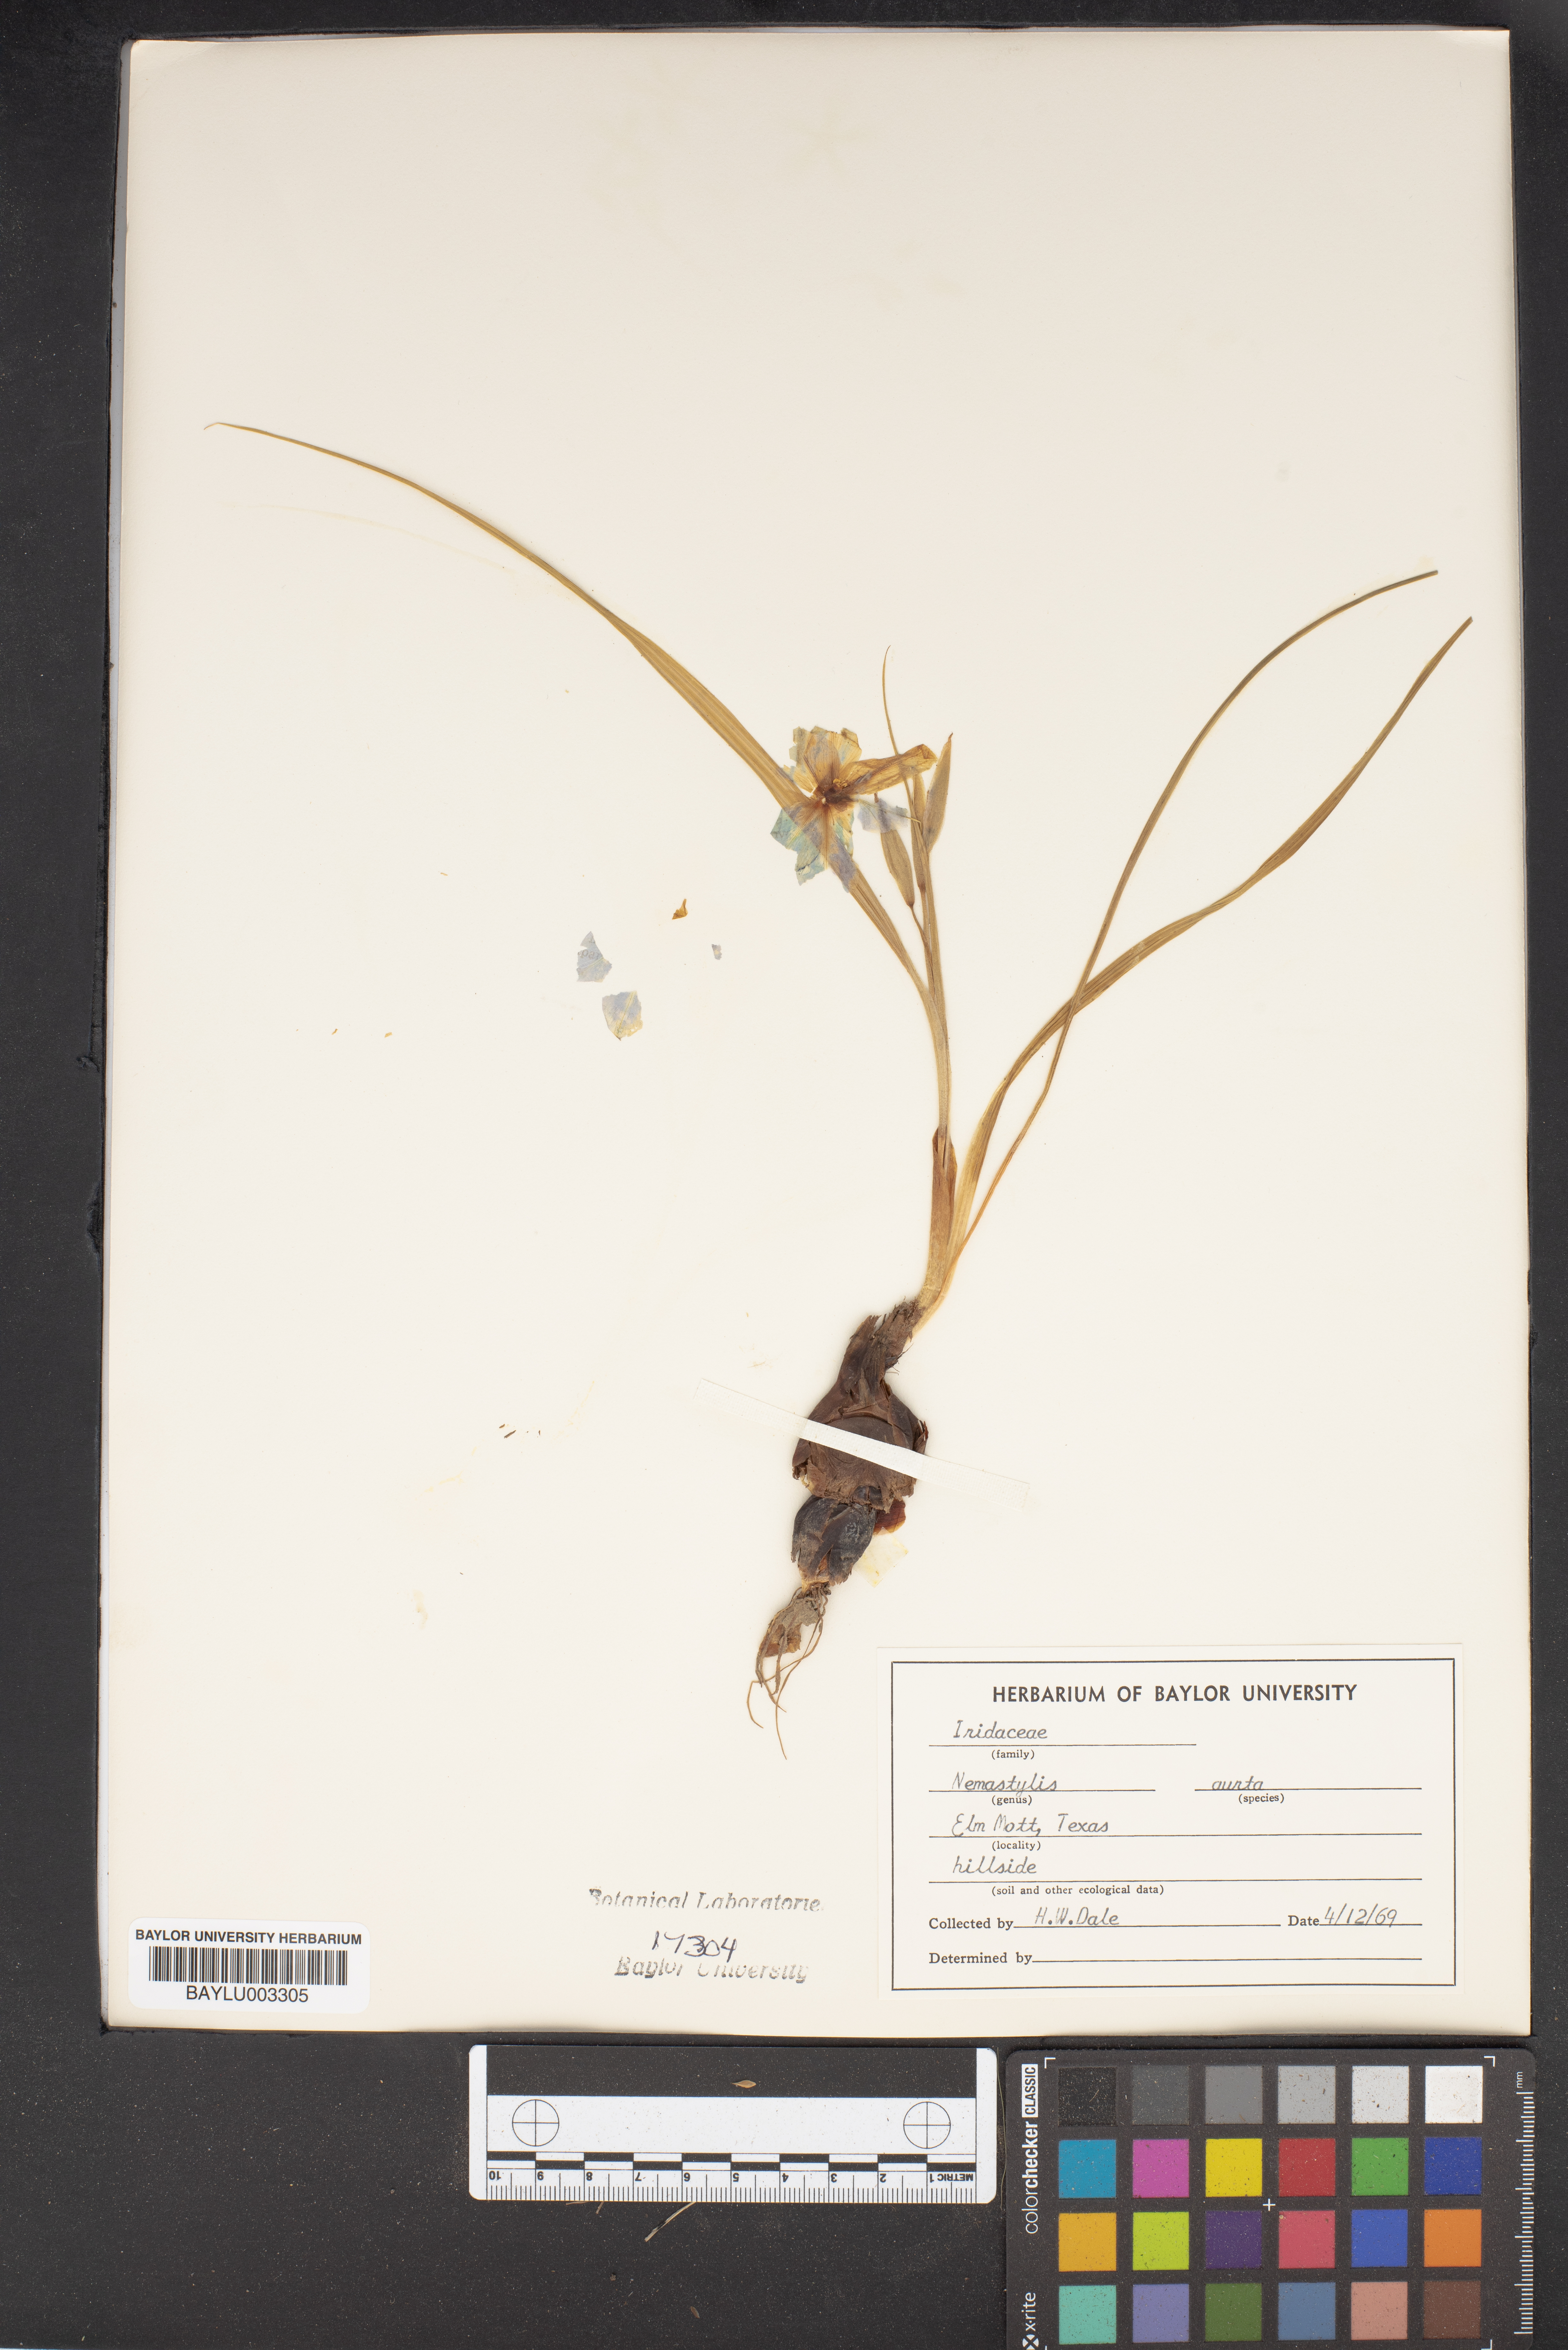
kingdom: Plantae
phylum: Tracheophyta
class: Liliopsida
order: Asparagales
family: Iridaceae
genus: Nemastylis
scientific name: Nemastylis geminiflora
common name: Prairie celestial
